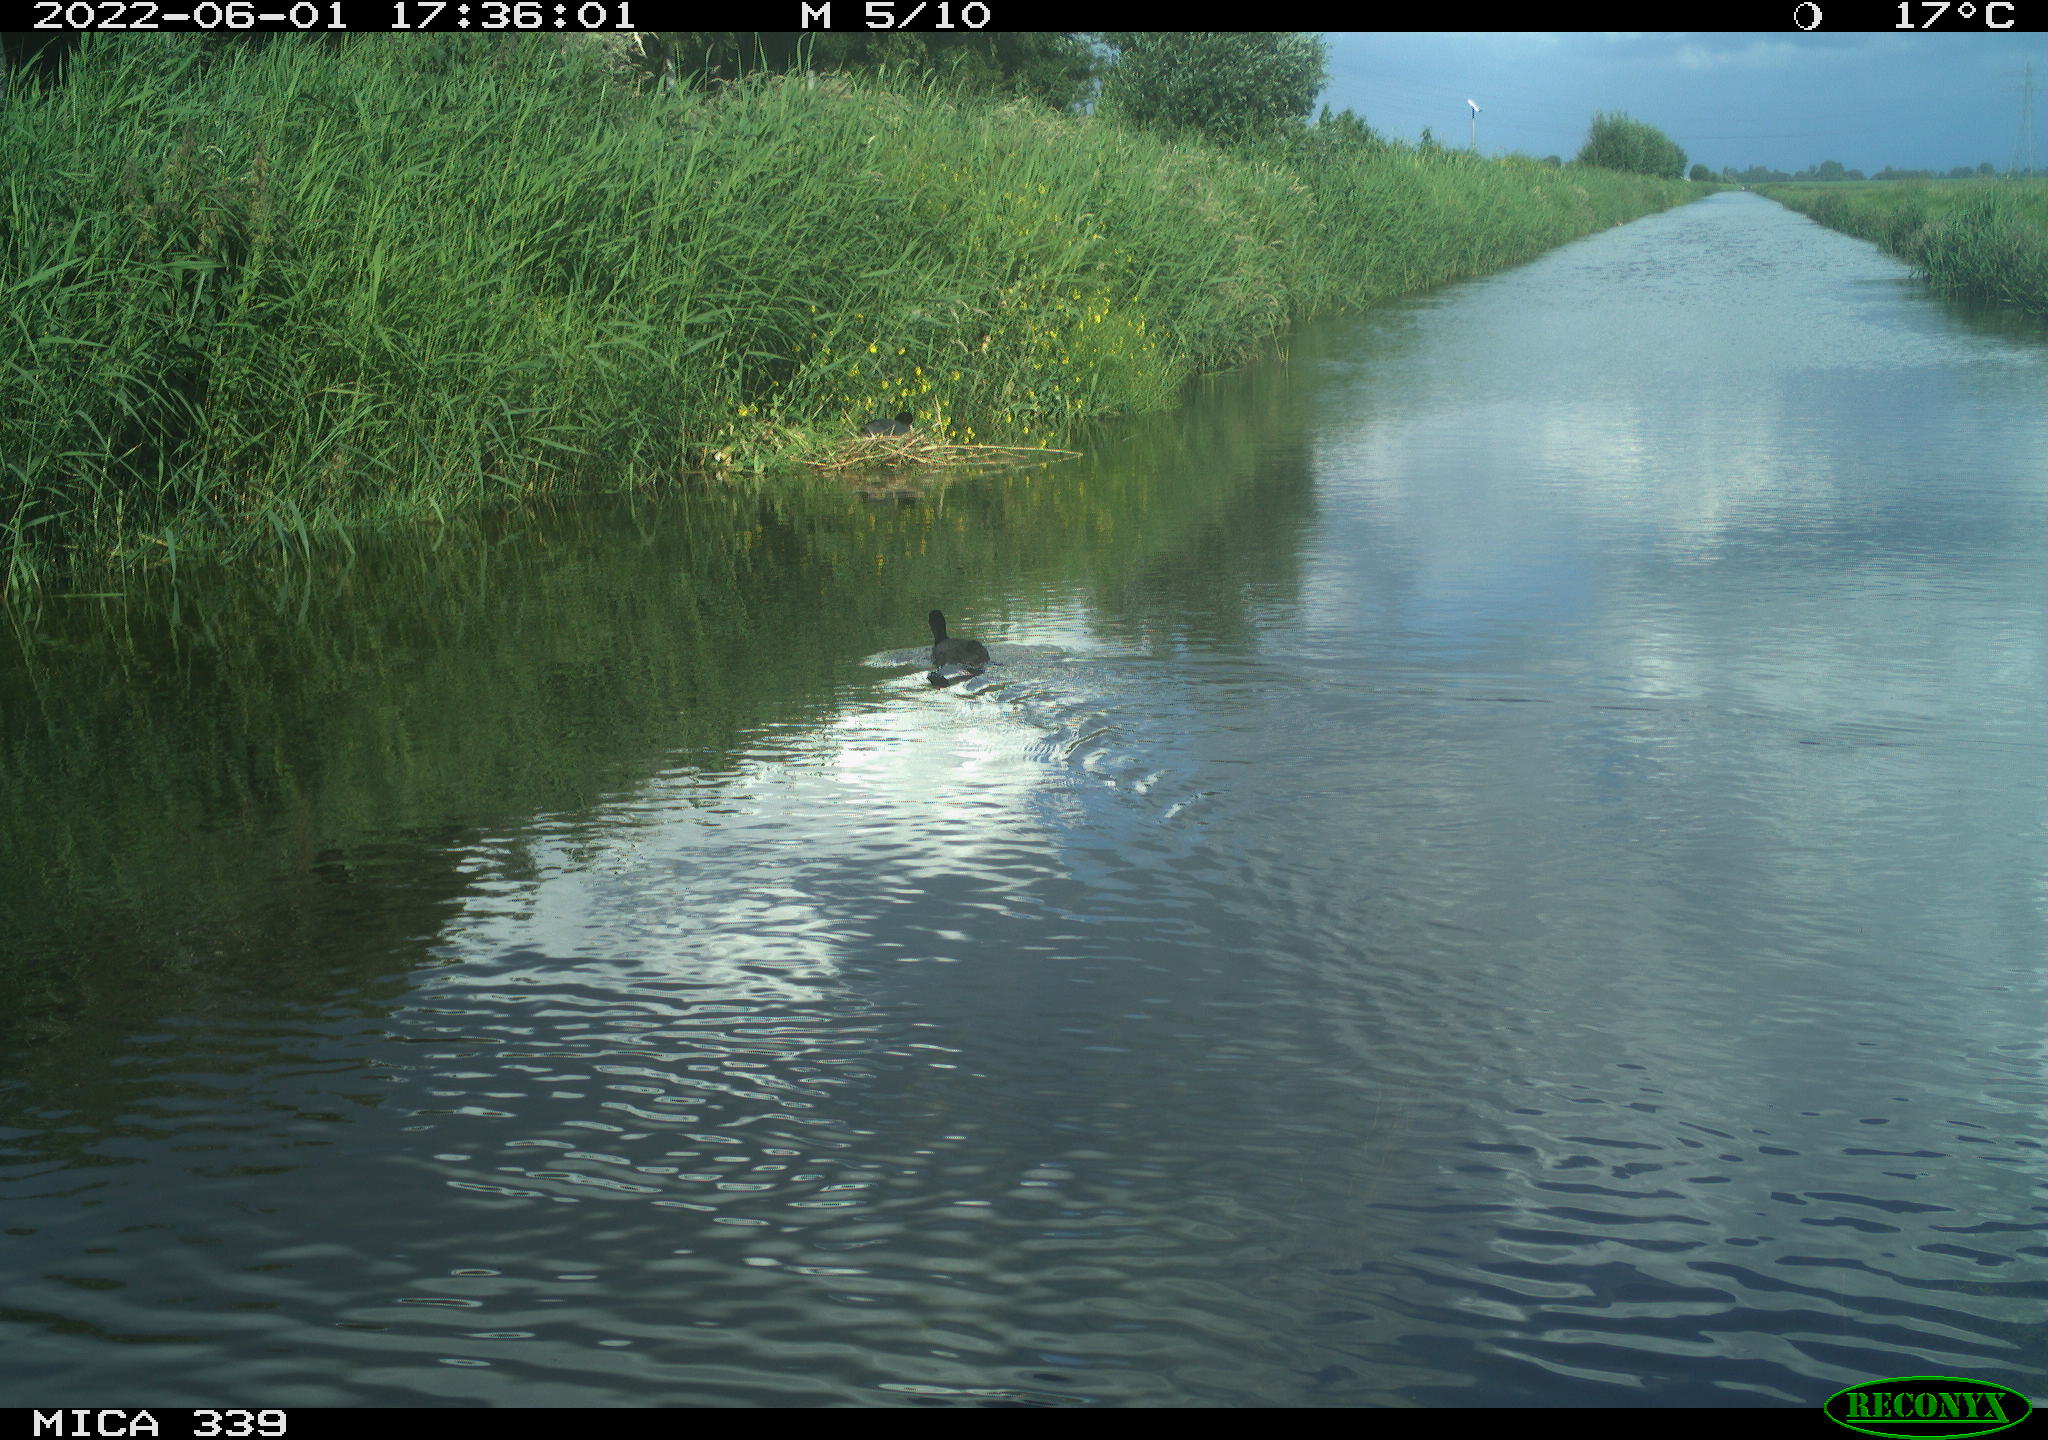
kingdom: Animalia
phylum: Chordata
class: Aves
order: Gruiformes
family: Rallidae
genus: Fulica
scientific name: Fulica atra
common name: Eurasian coot
